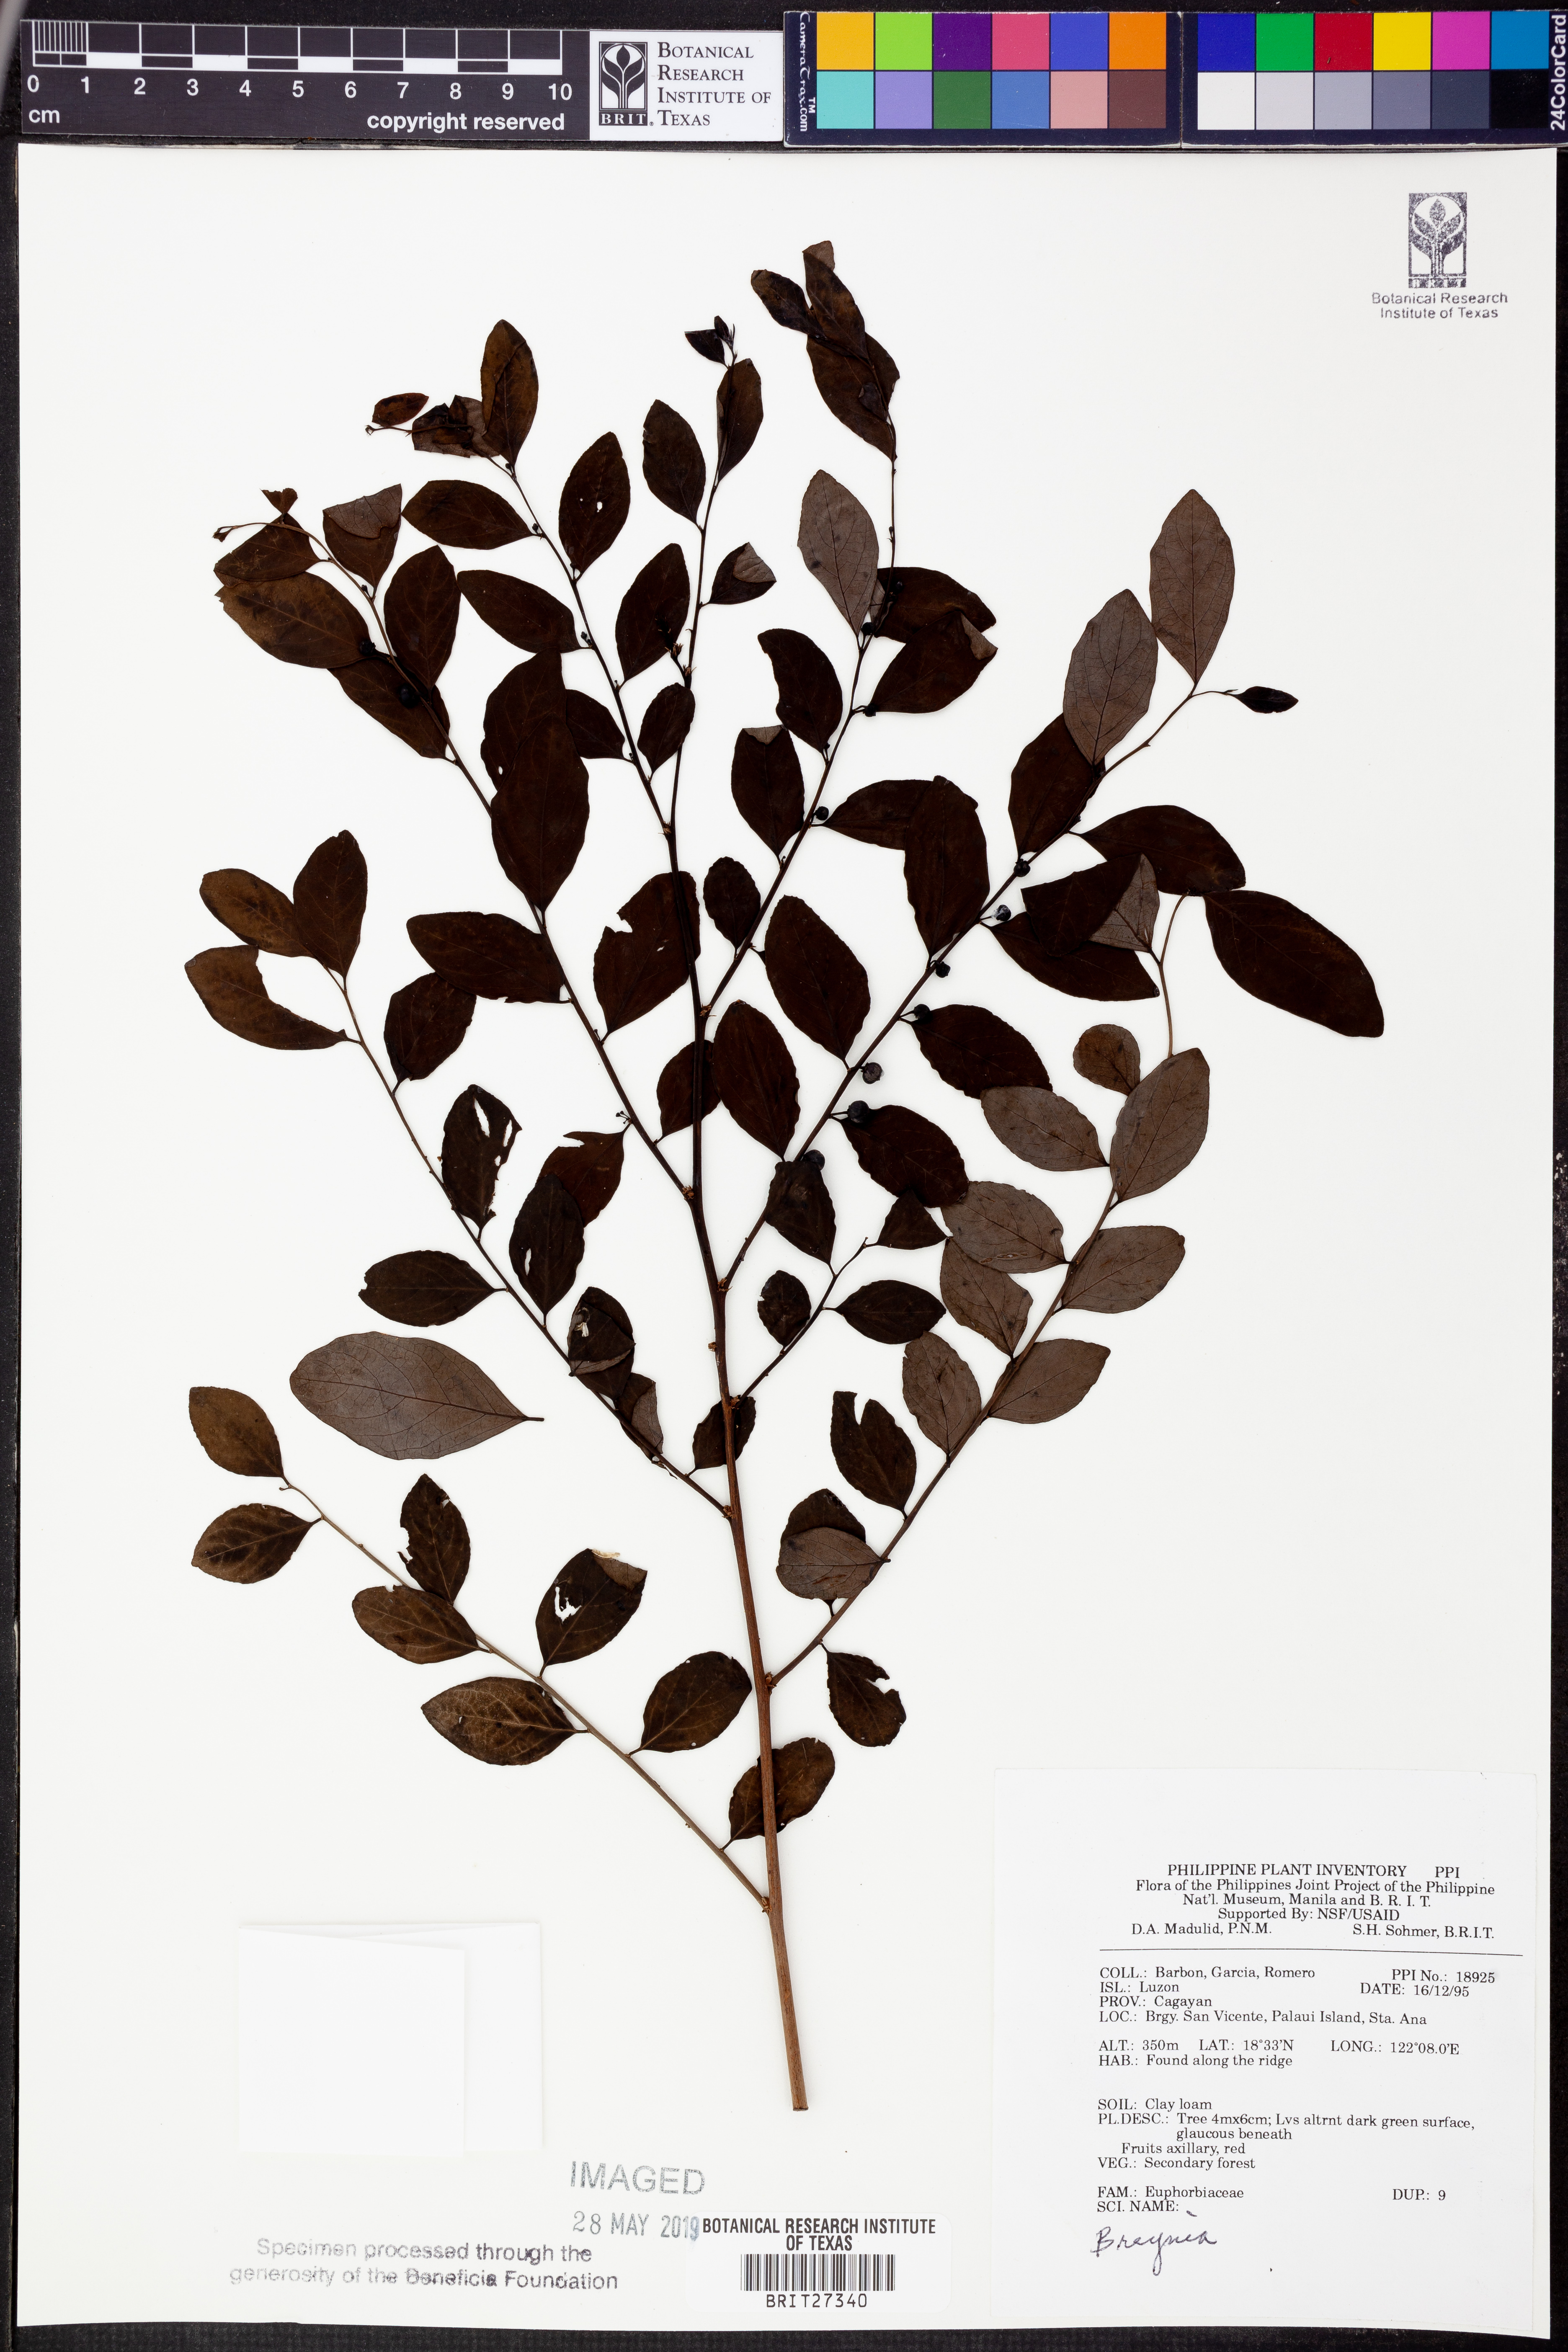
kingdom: Plantae
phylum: Tracheophyta
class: Magnoliopsida
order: Malpighiales
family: Phyllanthaceae
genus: Breynia
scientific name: Breynia
